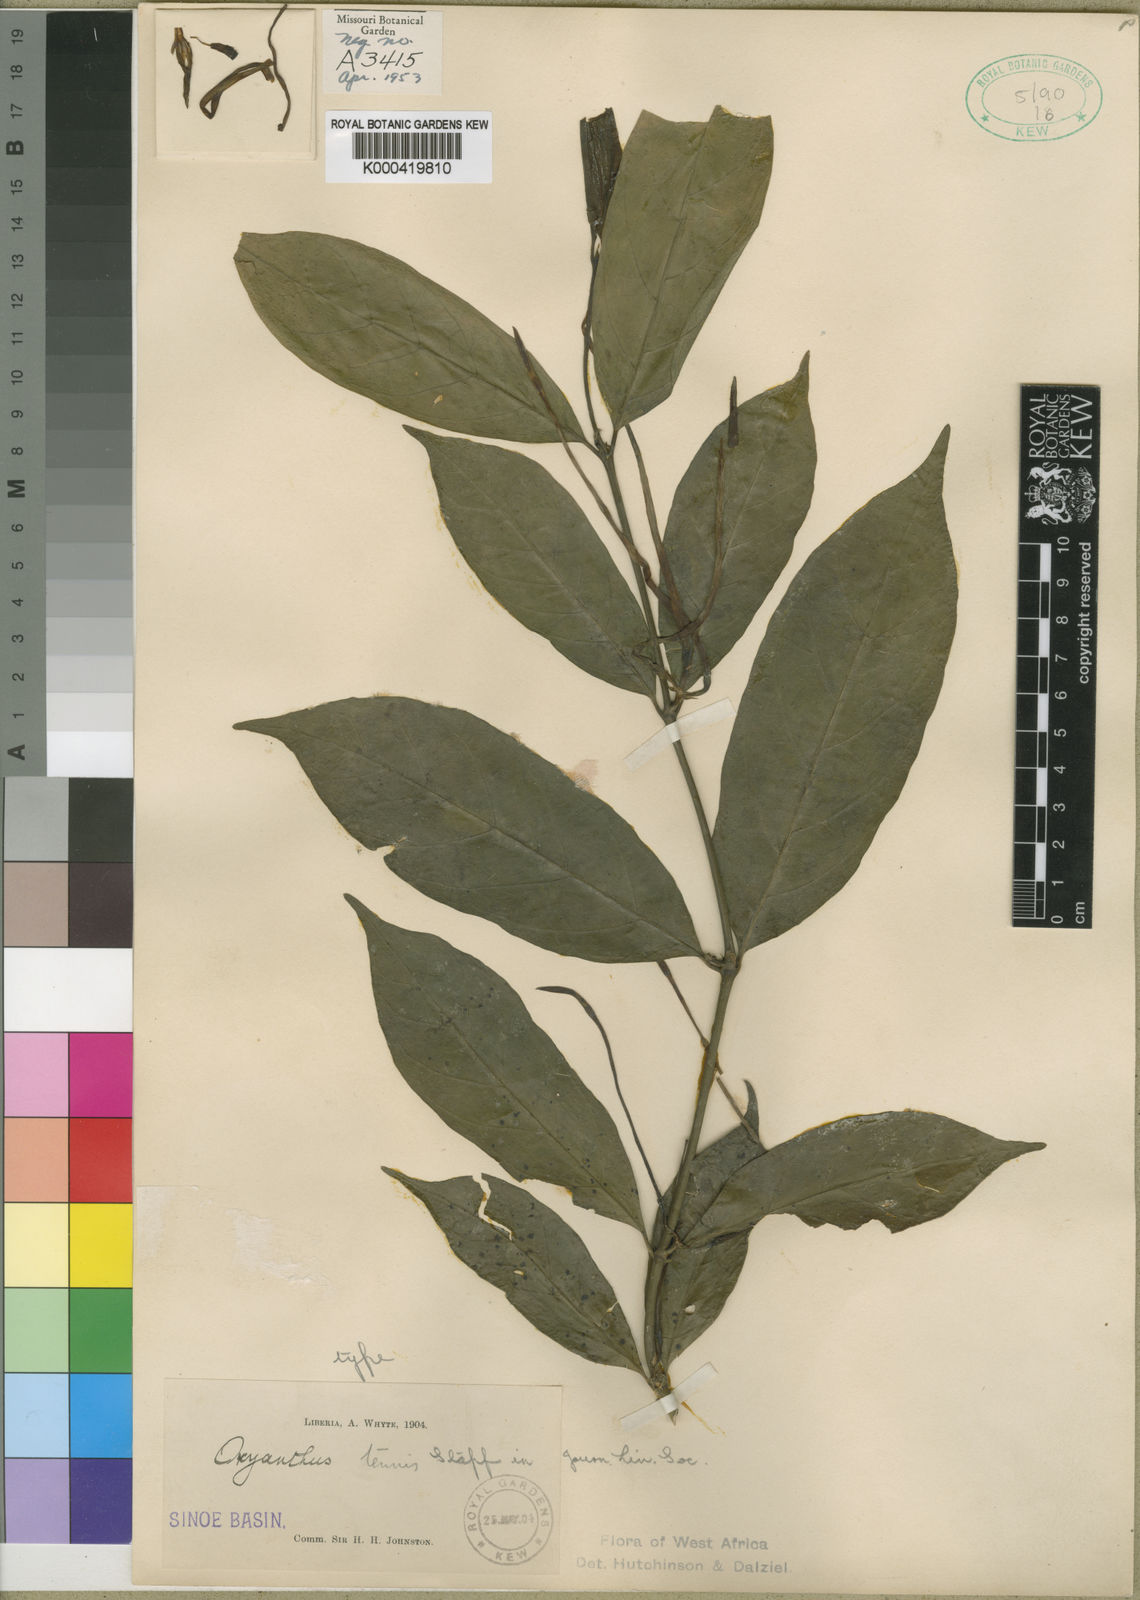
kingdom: Plantae
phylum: Tracheophyta
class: Magnoliopsida
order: Gentianales
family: Rubiaceae
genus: Oxyanthus
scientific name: Oxyanthus subpunctatus
